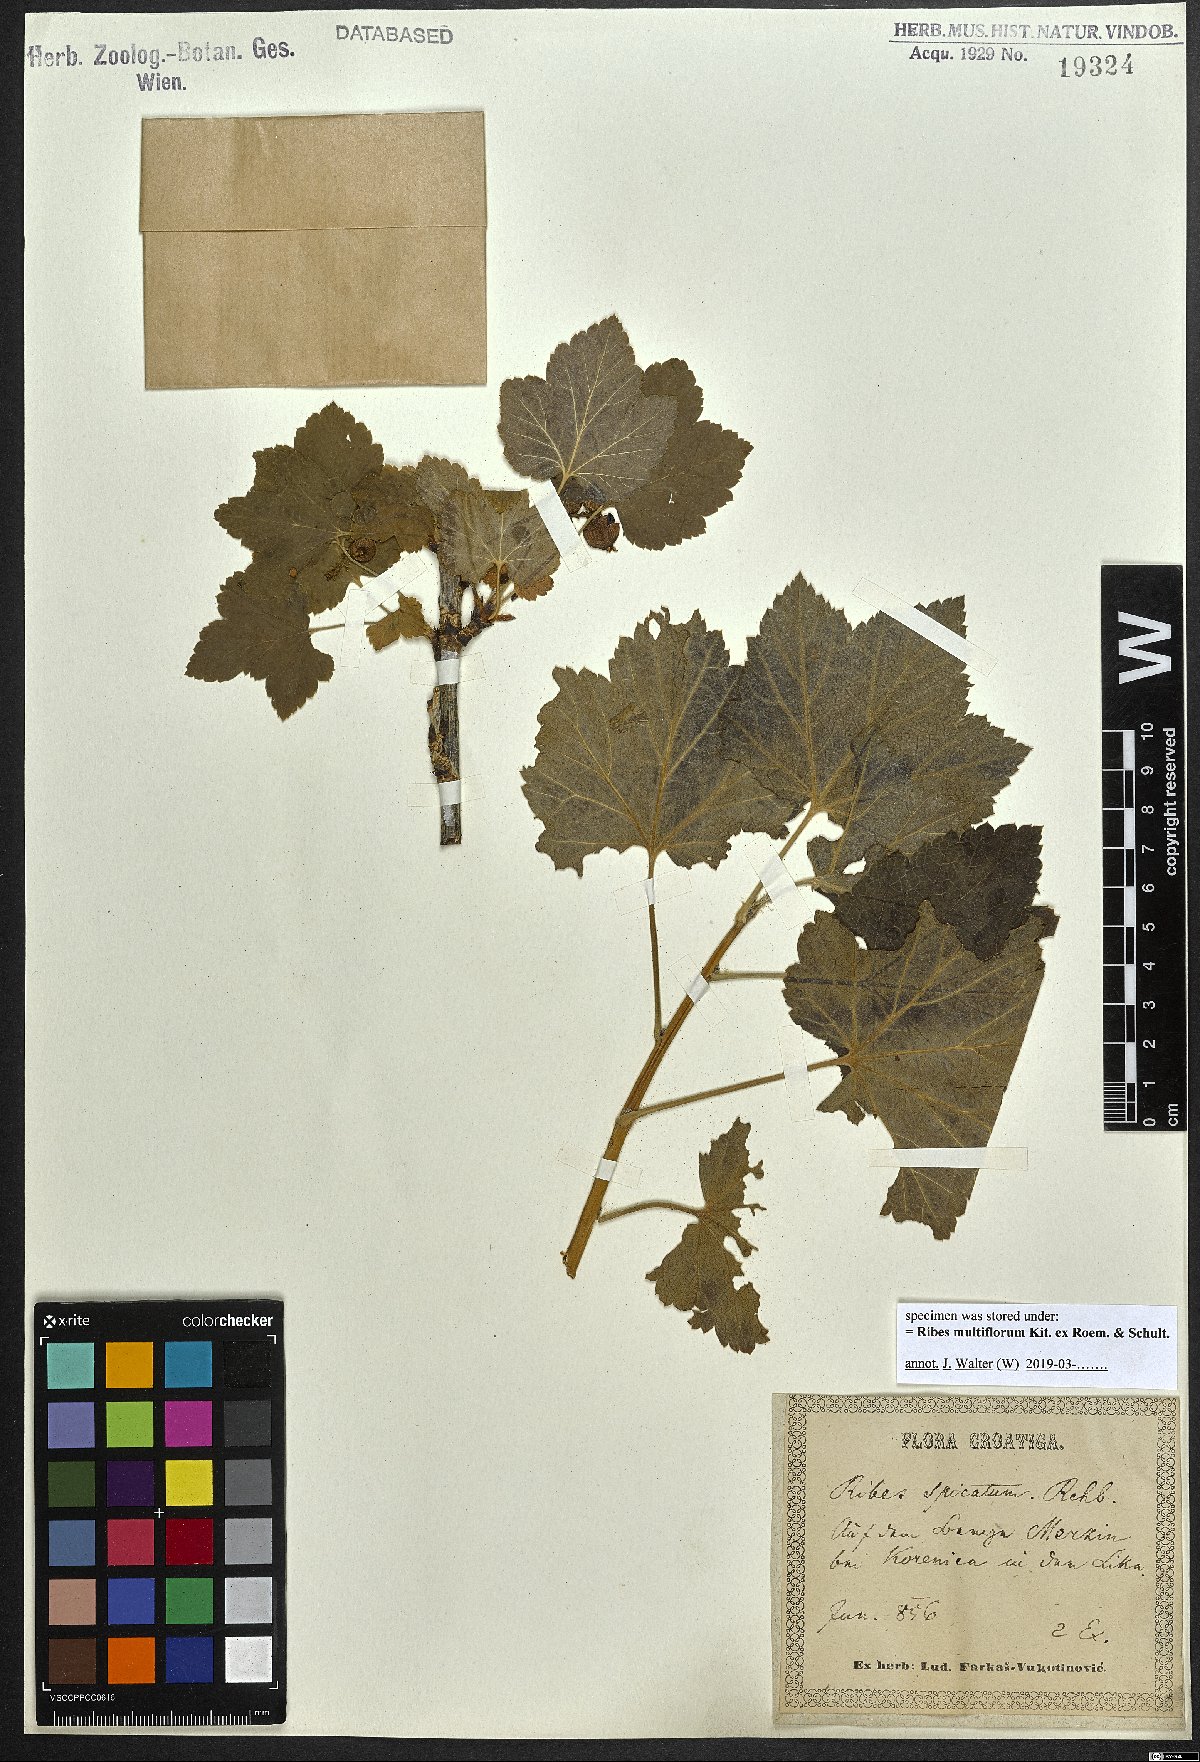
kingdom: Plantae
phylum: Tracheophyta
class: Magnoliopsida
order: Saxifragales
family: Grossulariaceae
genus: Ribes
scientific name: Ribes multiflorum
